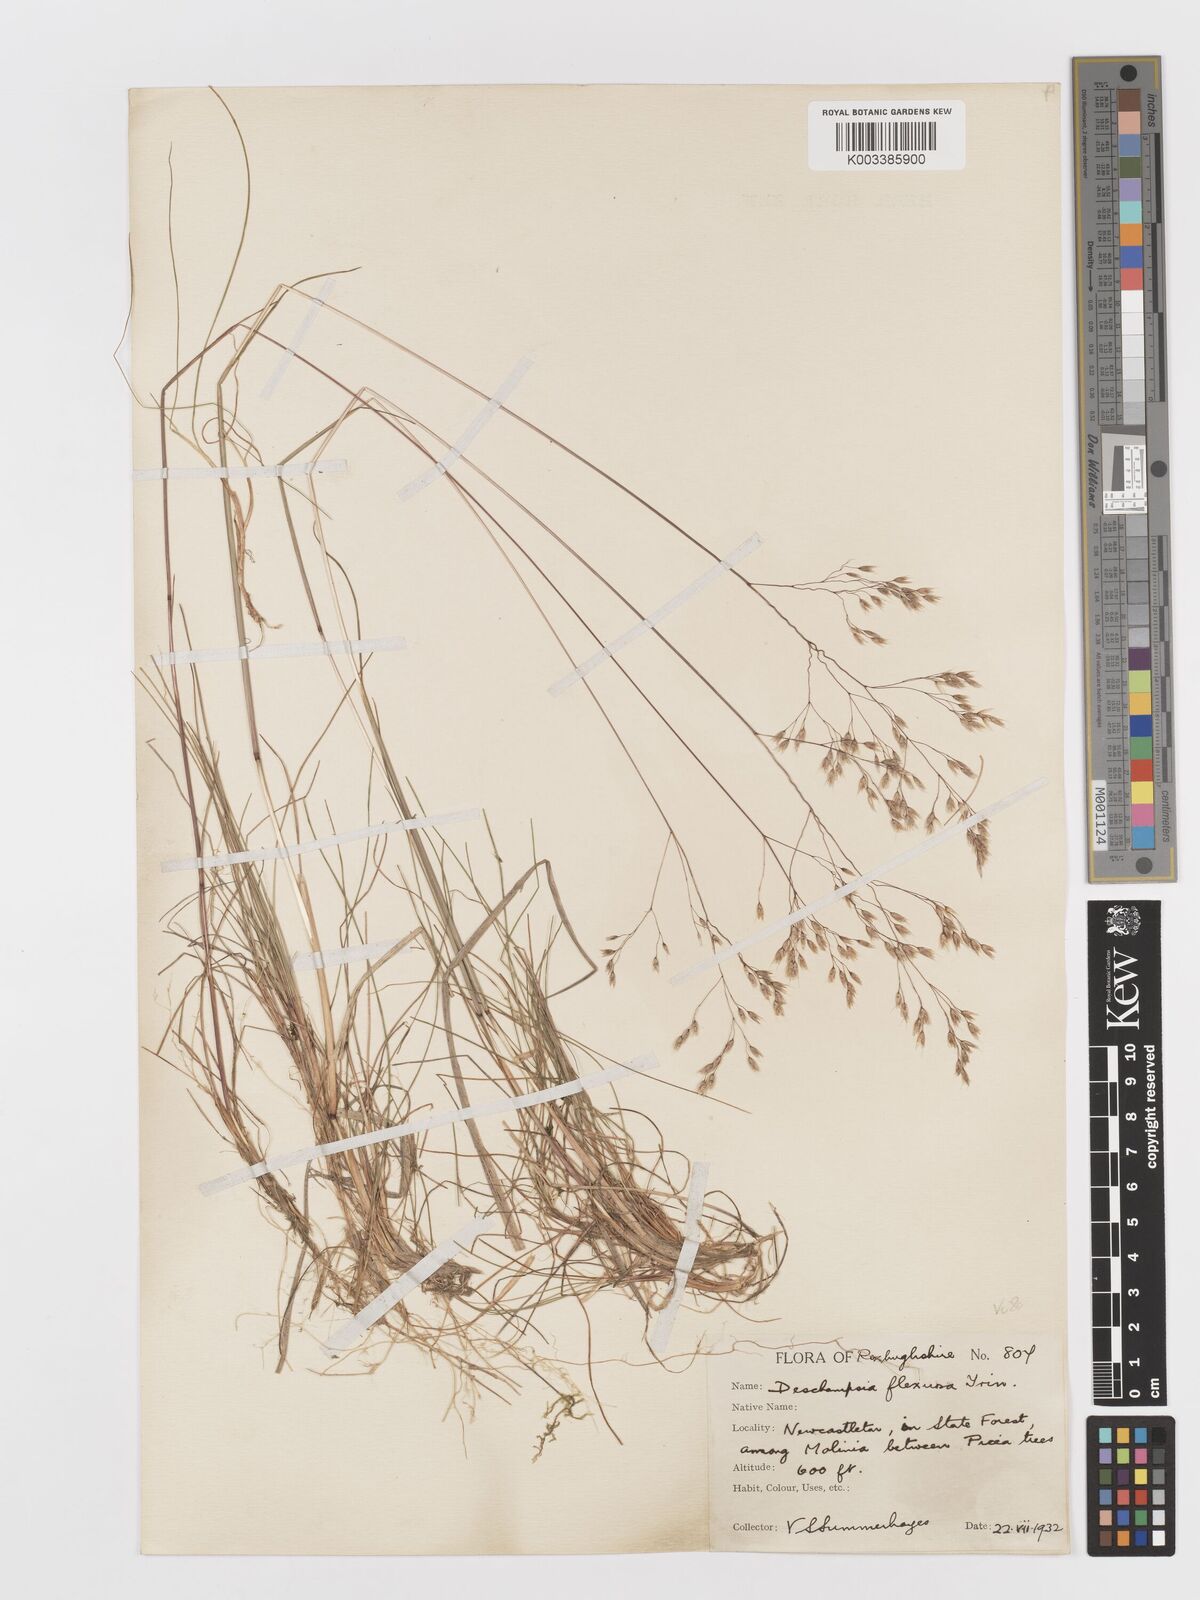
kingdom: Plantae
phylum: Tracheophyta
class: Liliopsida
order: Poales
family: Poaceae
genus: Avenella
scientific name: Avenella flexuosa
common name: Wavy hairgrass
